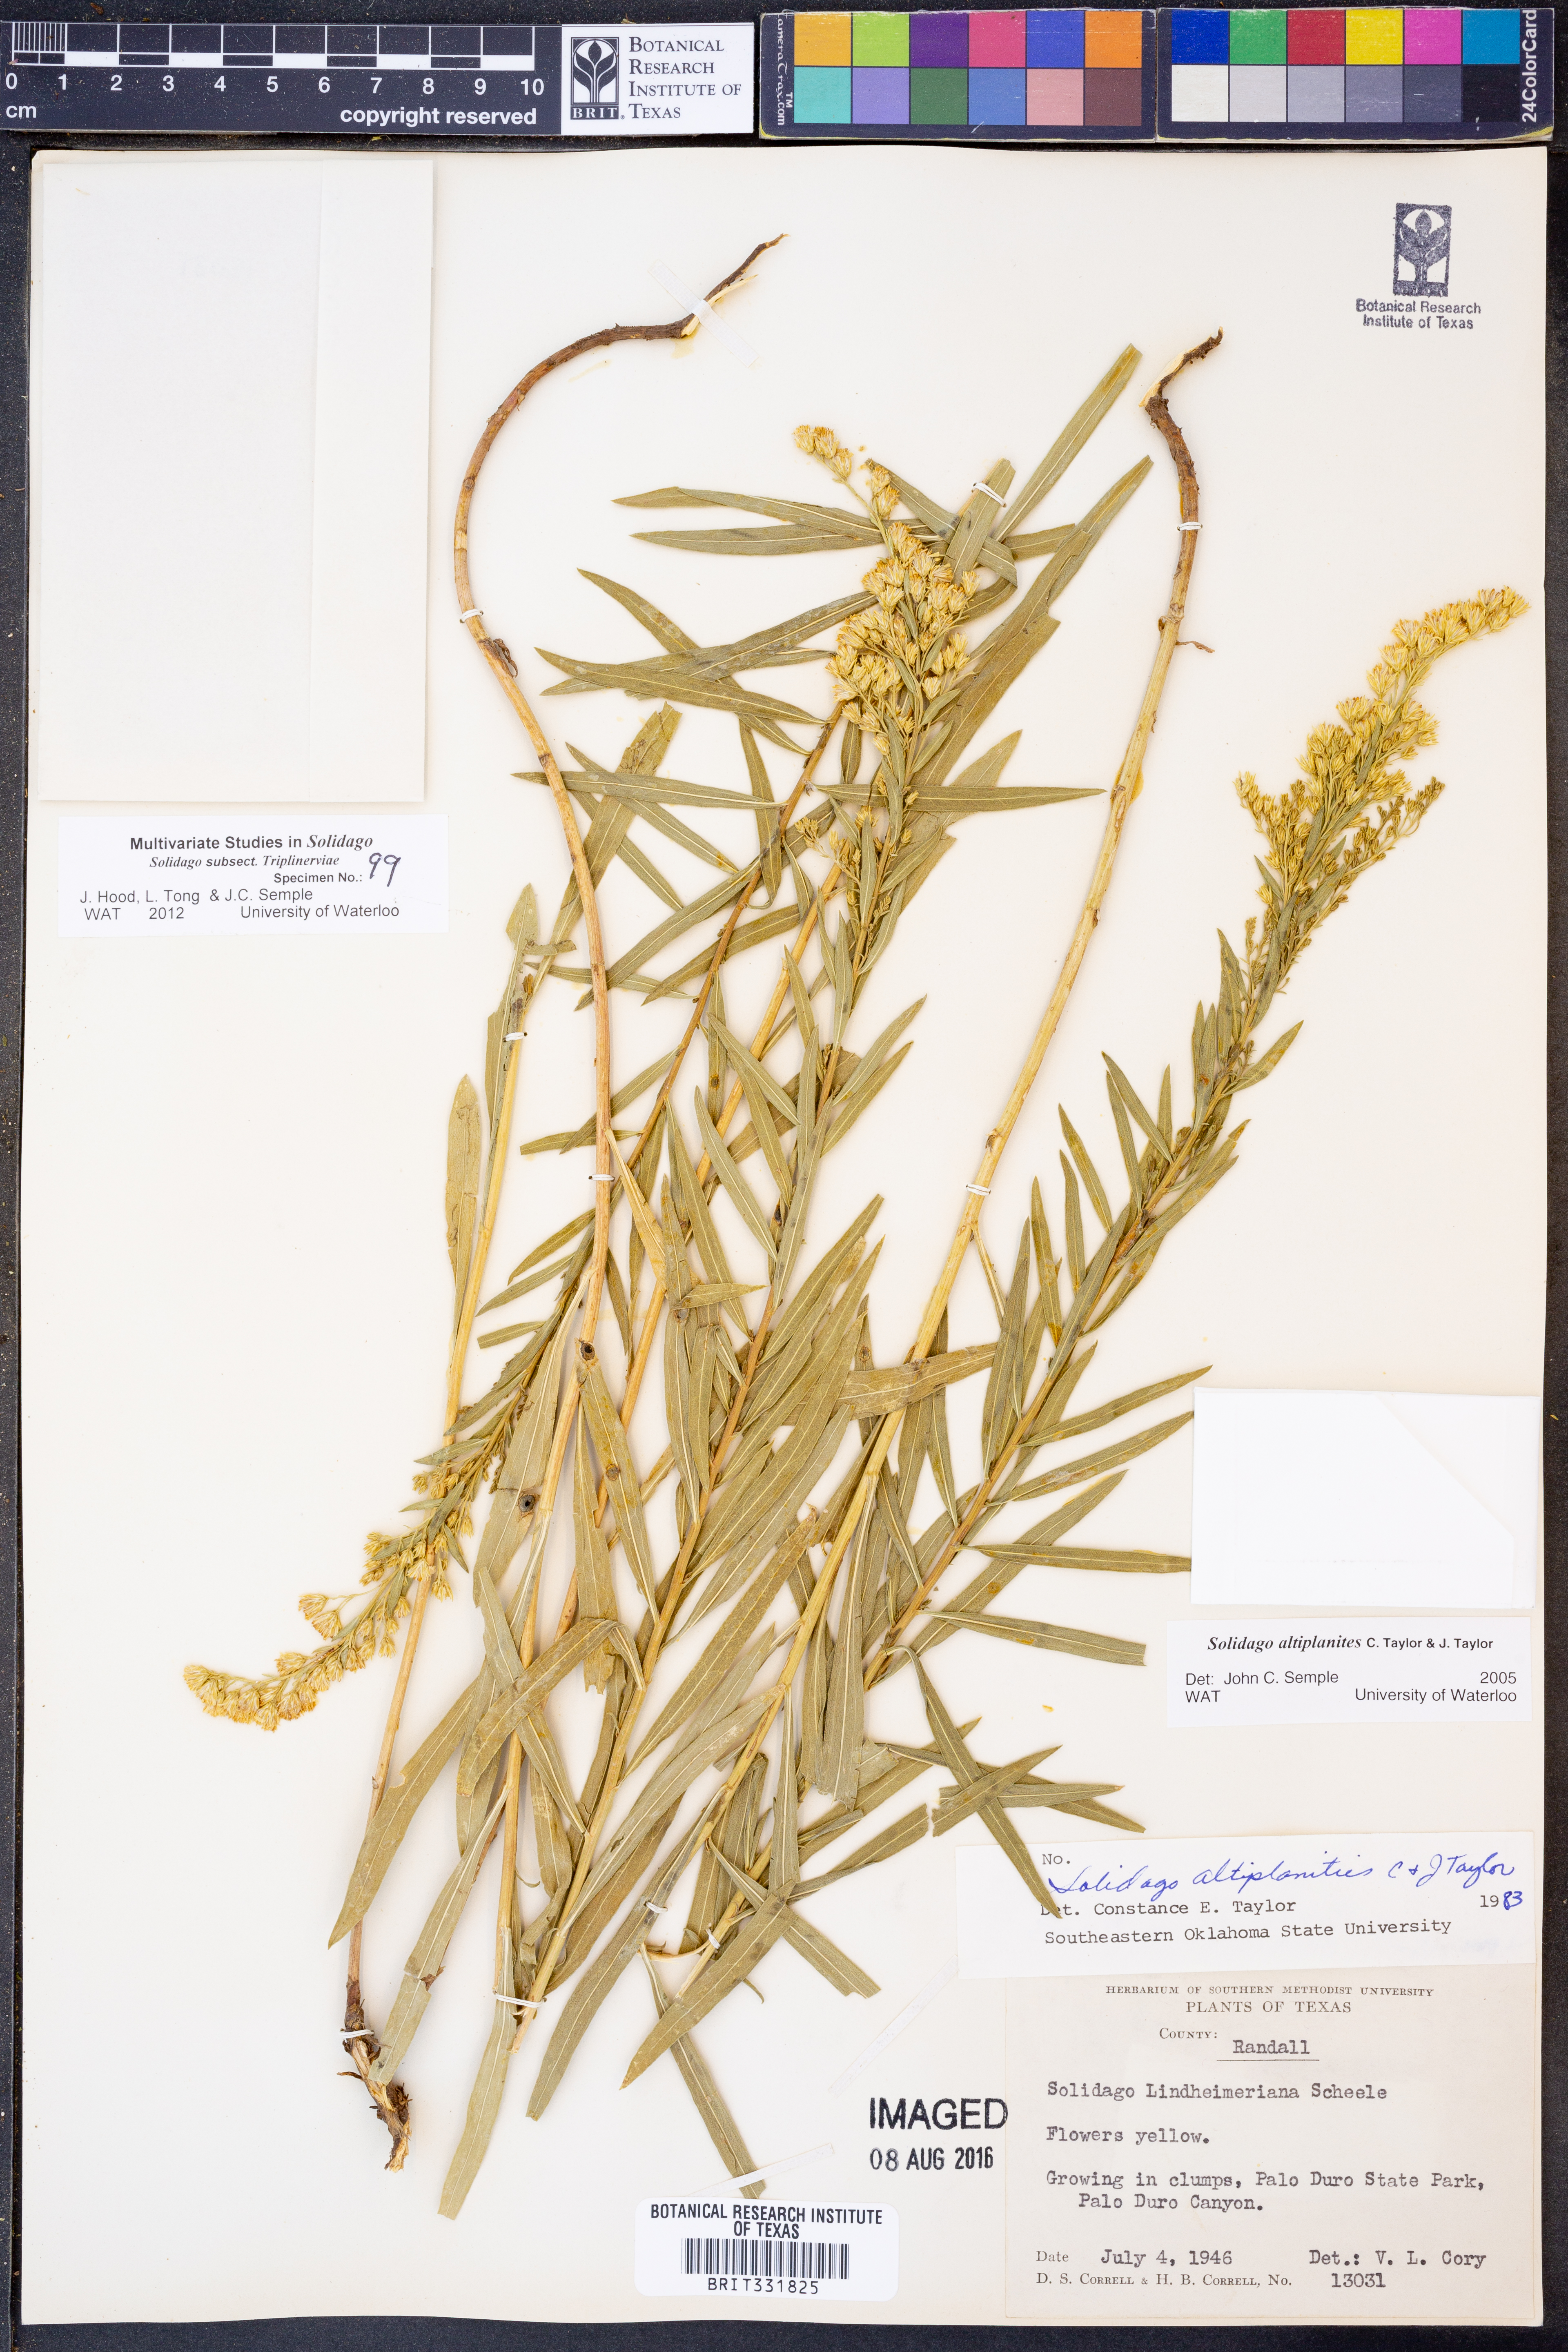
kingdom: Plantae
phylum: Tracheophyta
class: Magnoliopsida
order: Asterales
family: Asteraceae
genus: Solidago
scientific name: Solidago altiplanities
